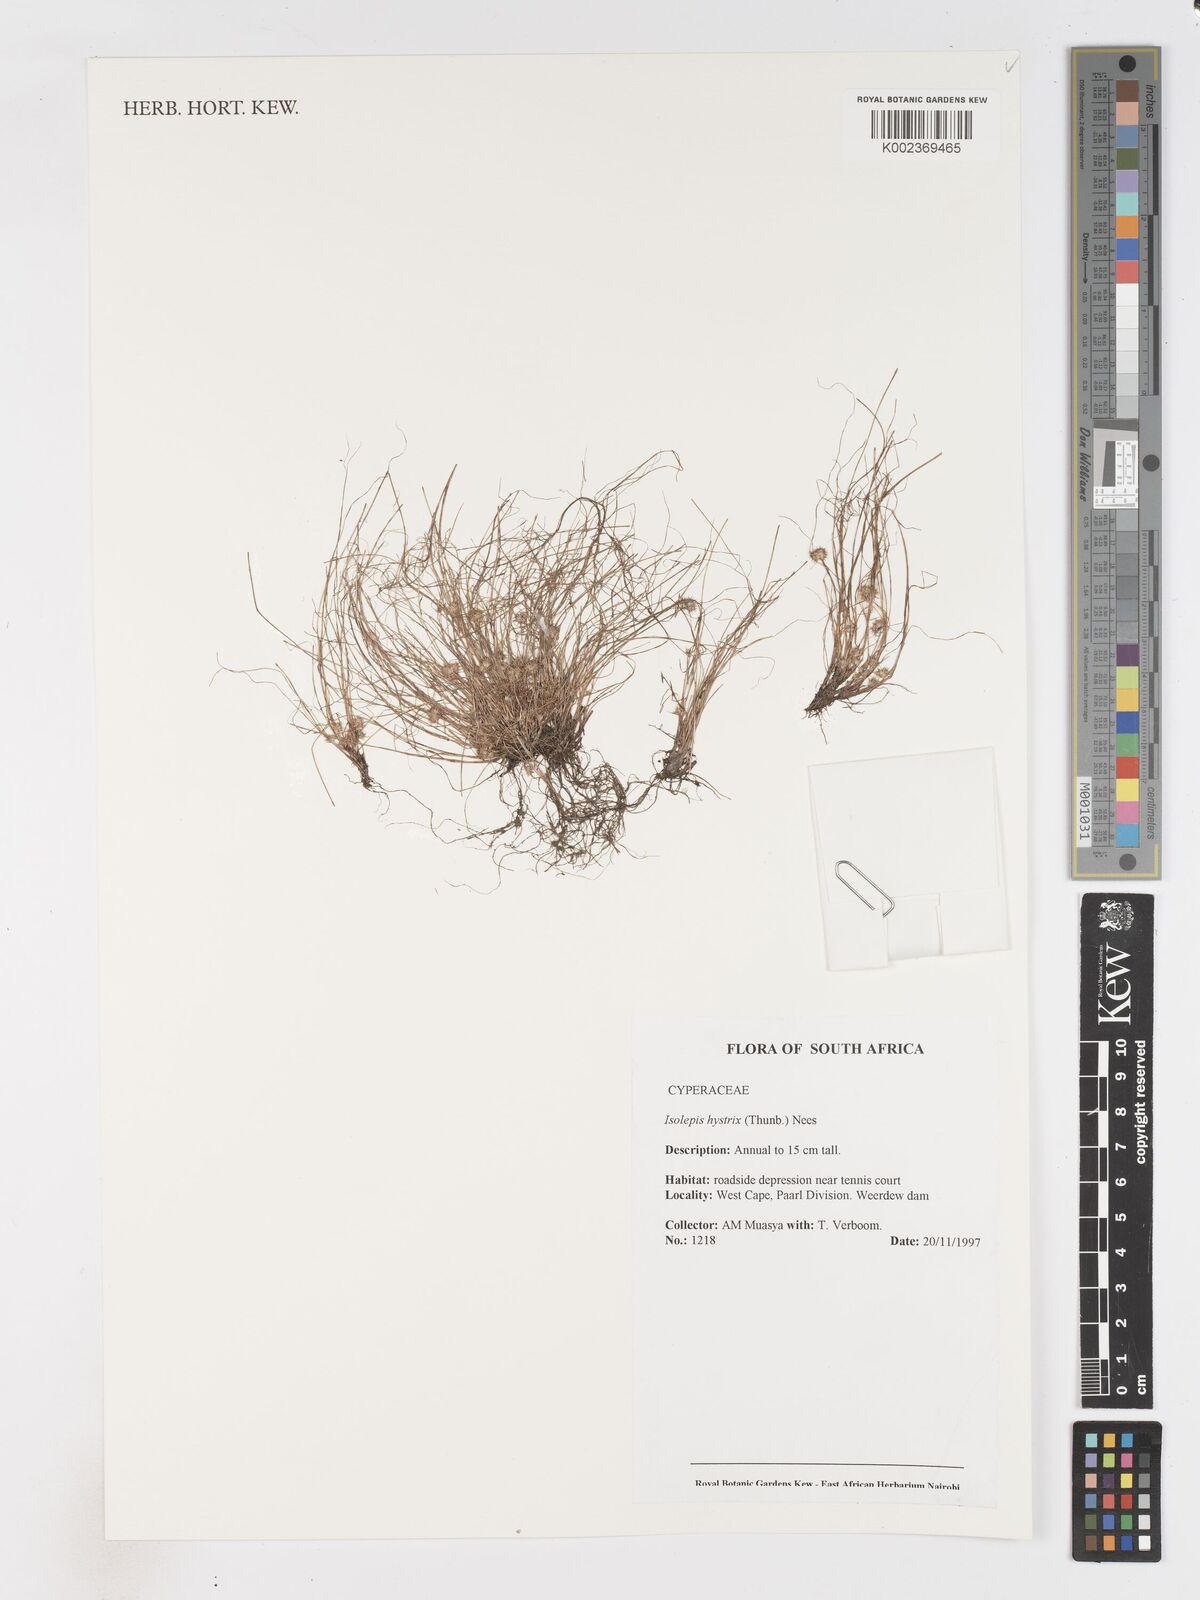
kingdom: Plantae
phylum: Tracheophyta
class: Liliopsida
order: Poales
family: Cyperaceae
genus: Isolepis
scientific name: Isolepis hystrix
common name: Bottlebrush bulrush
